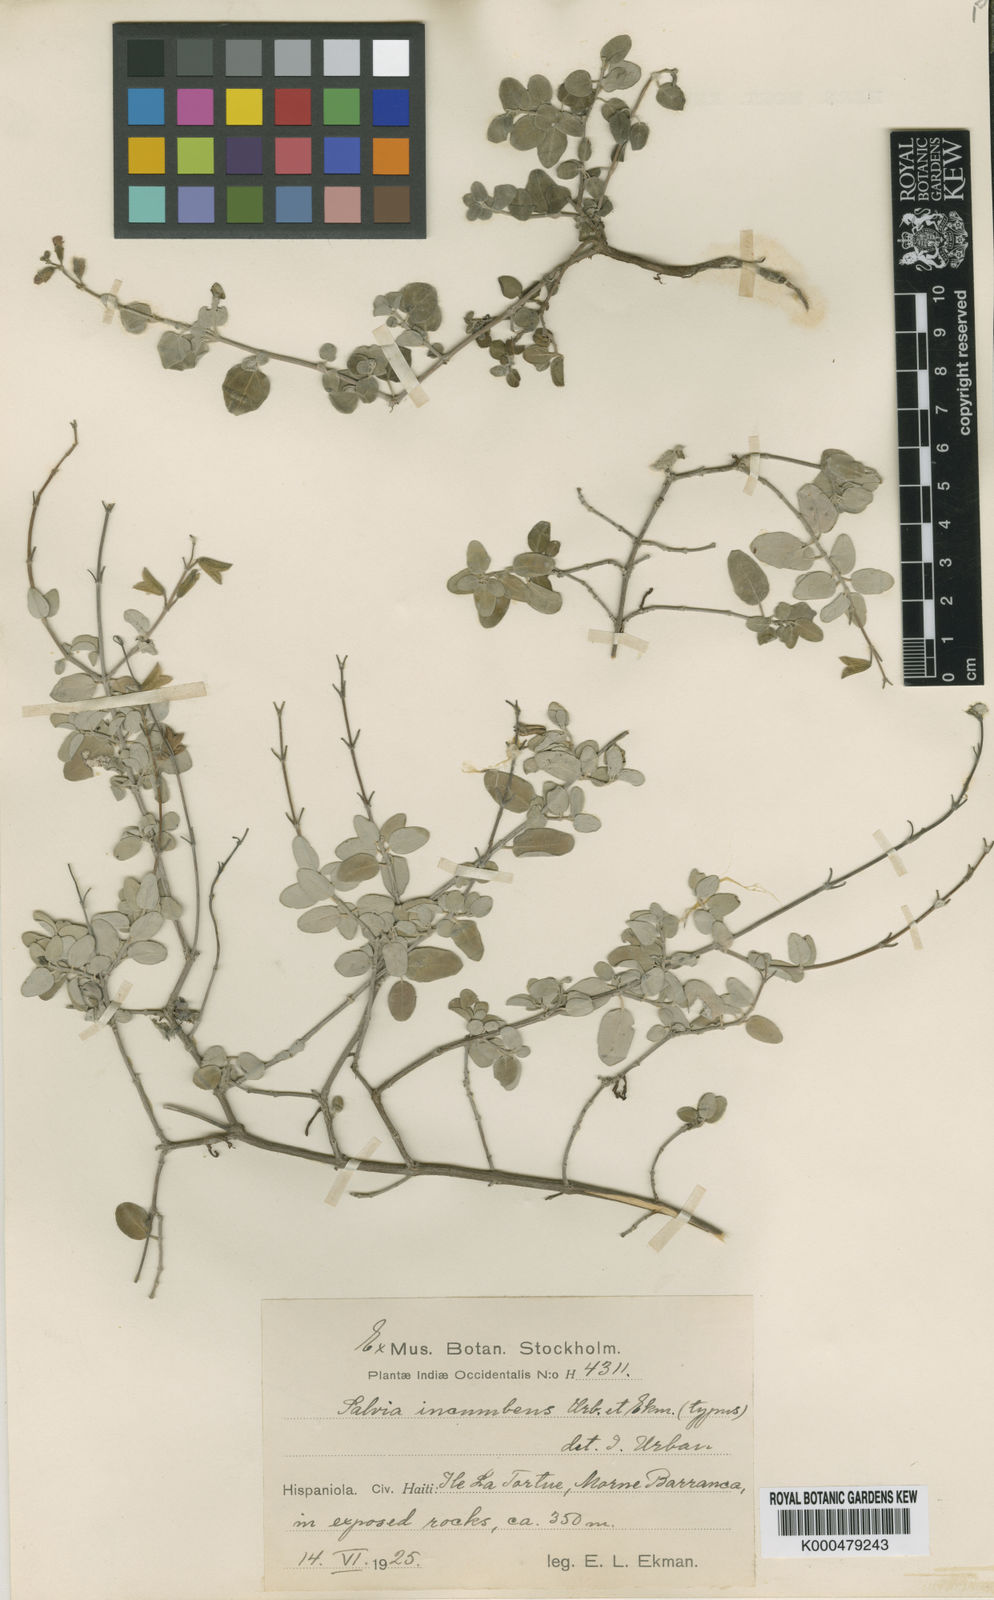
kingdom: Plantae
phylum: Tracheophyta
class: Magnoliopsida
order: Lamiales
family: Lamiaceae
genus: Salvia
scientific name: Salvia incumbens
